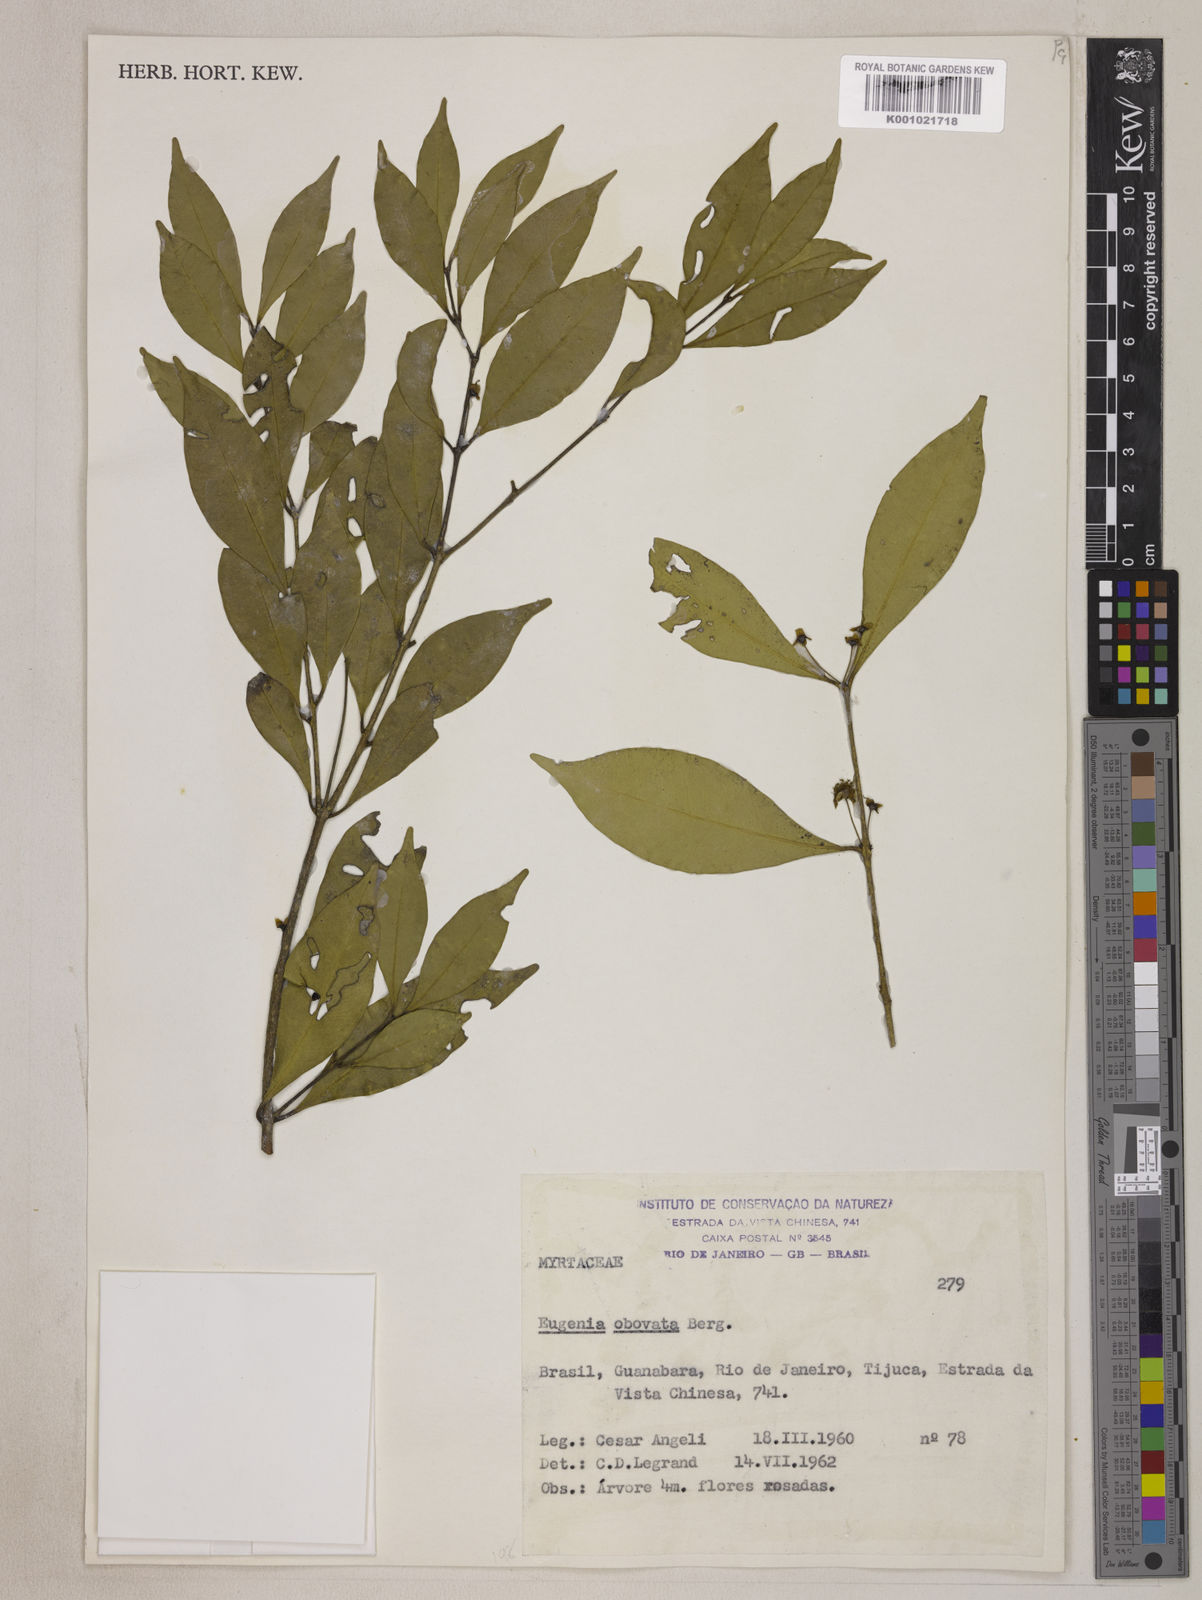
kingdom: Plantae
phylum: Tracheophyta
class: Magnoliopsida
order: Myrtales
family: Myrtaceae
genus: Eugenia
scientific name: Eugenia excelsa
